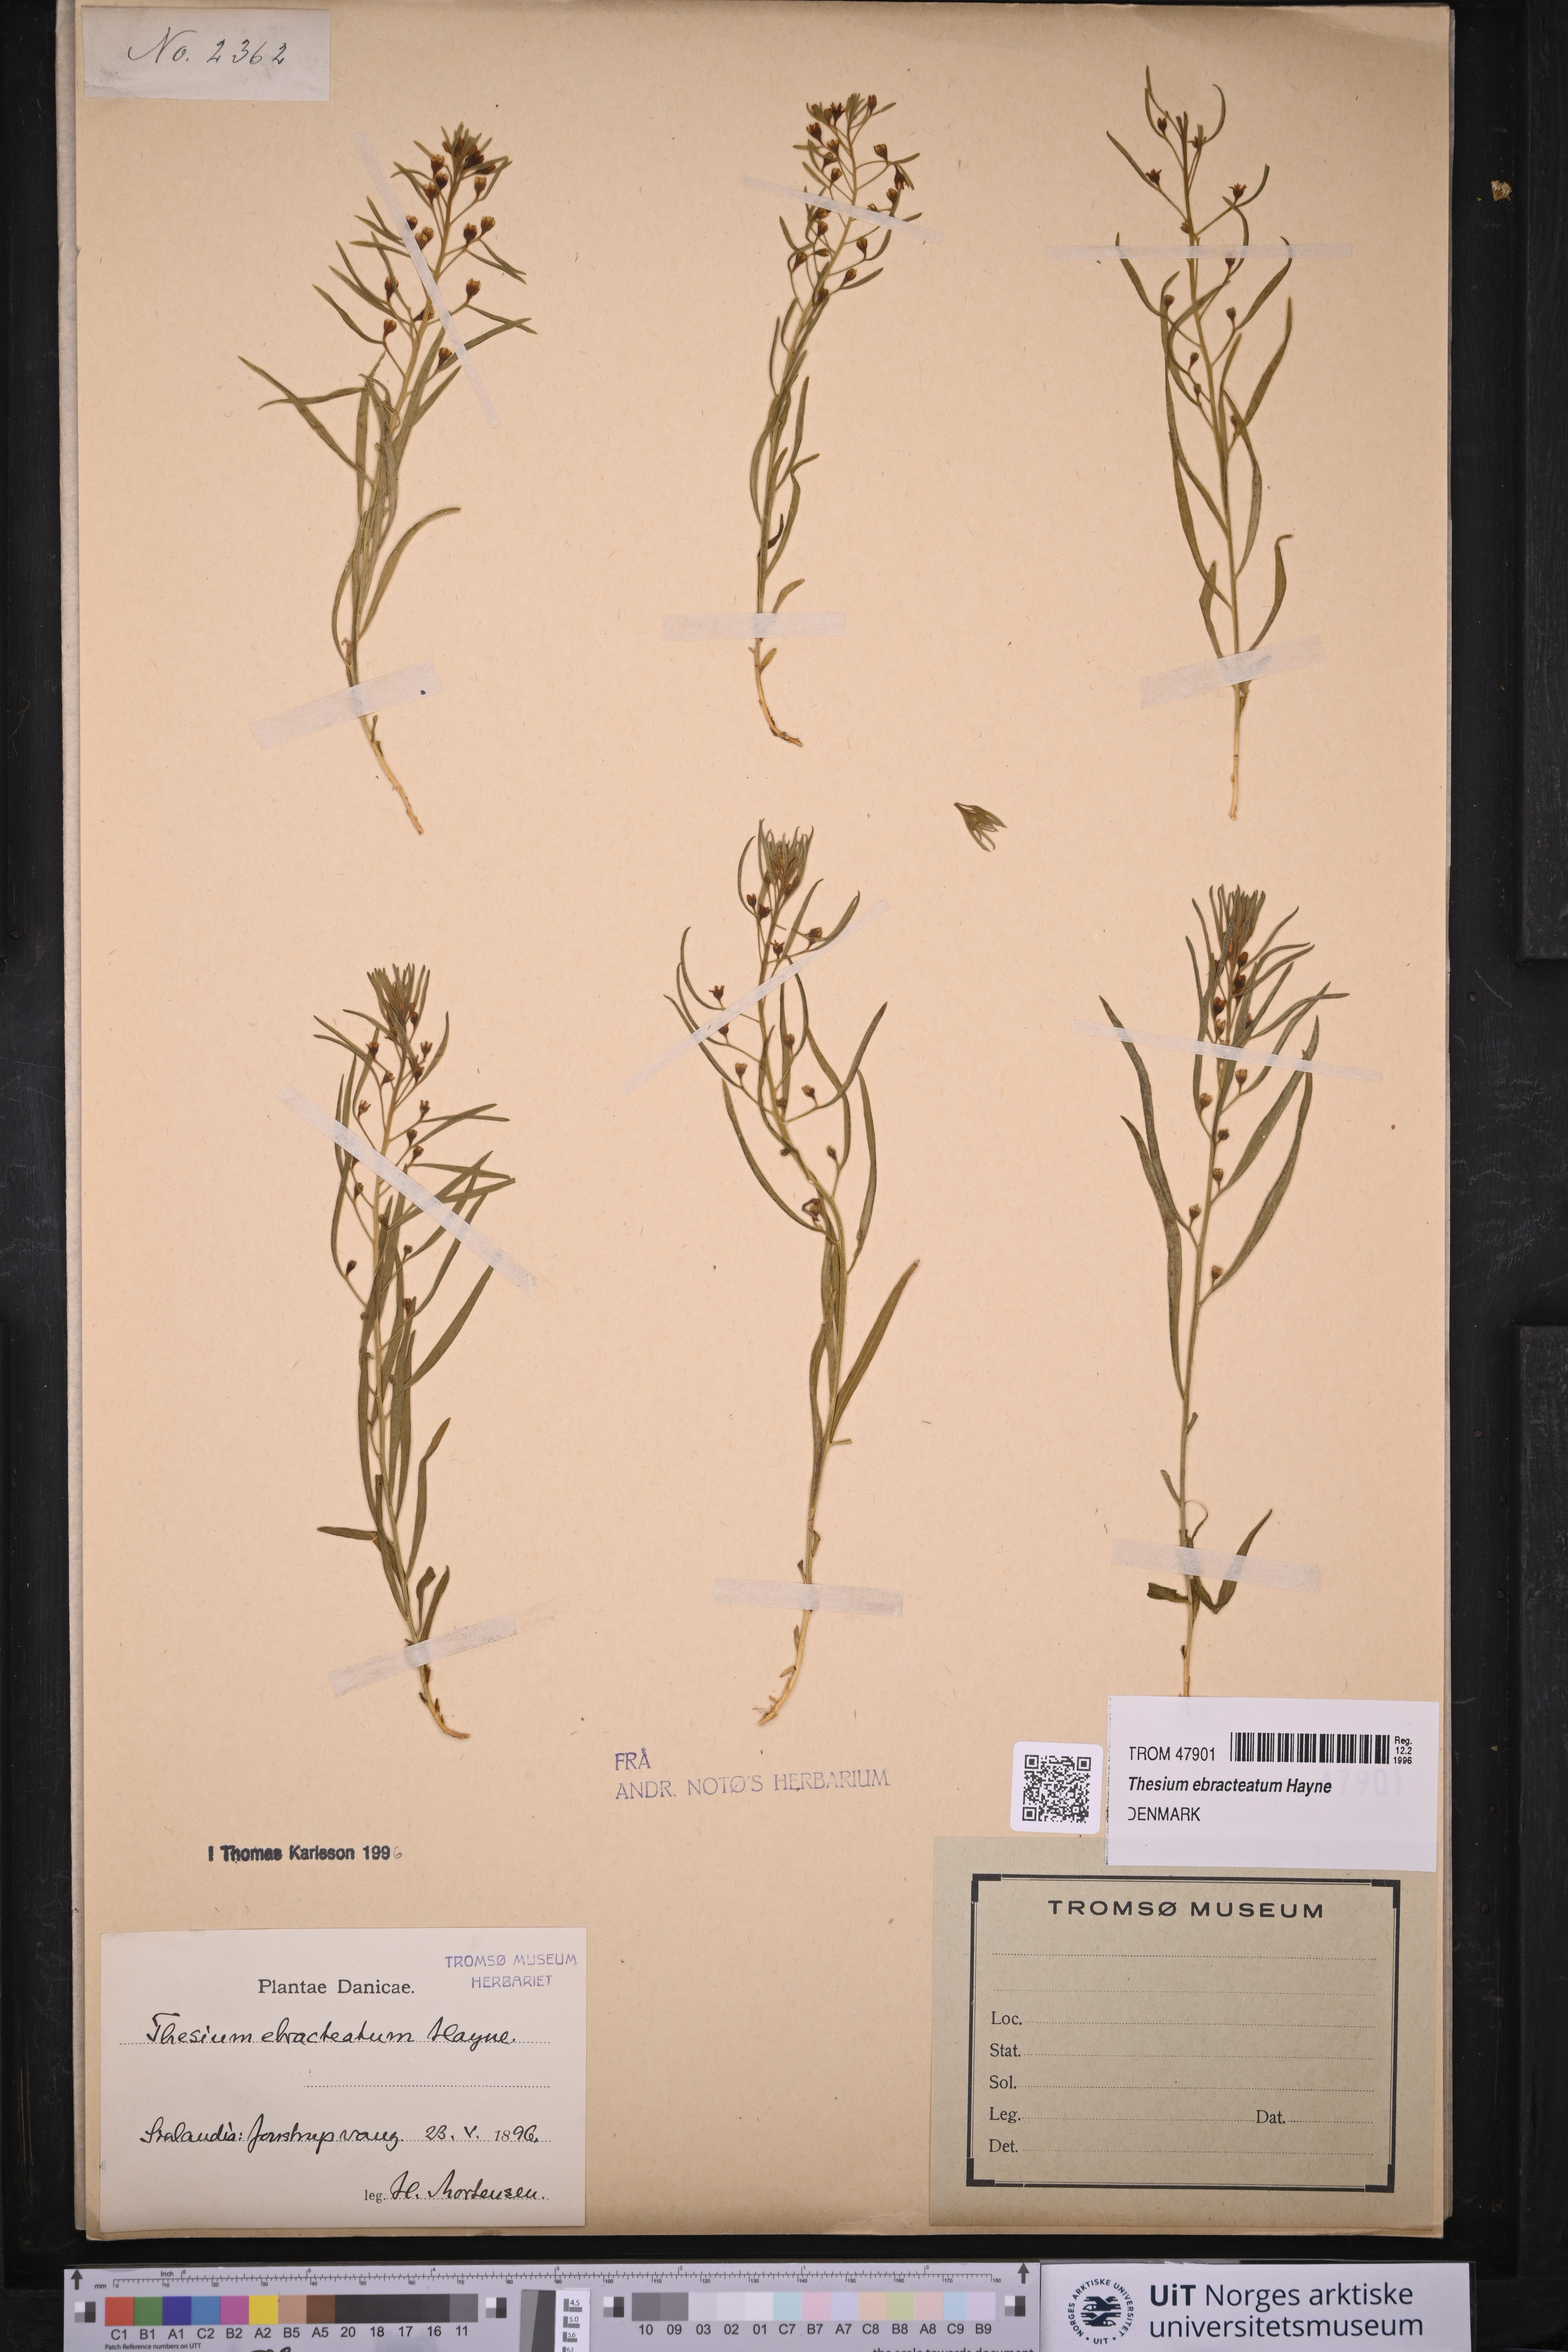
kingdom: Plantae
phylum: Tracheophyta
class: Magnoliopsida
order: Santalales
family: Thesiaceae
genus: Thesium
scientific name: Thesium ebracteatum
